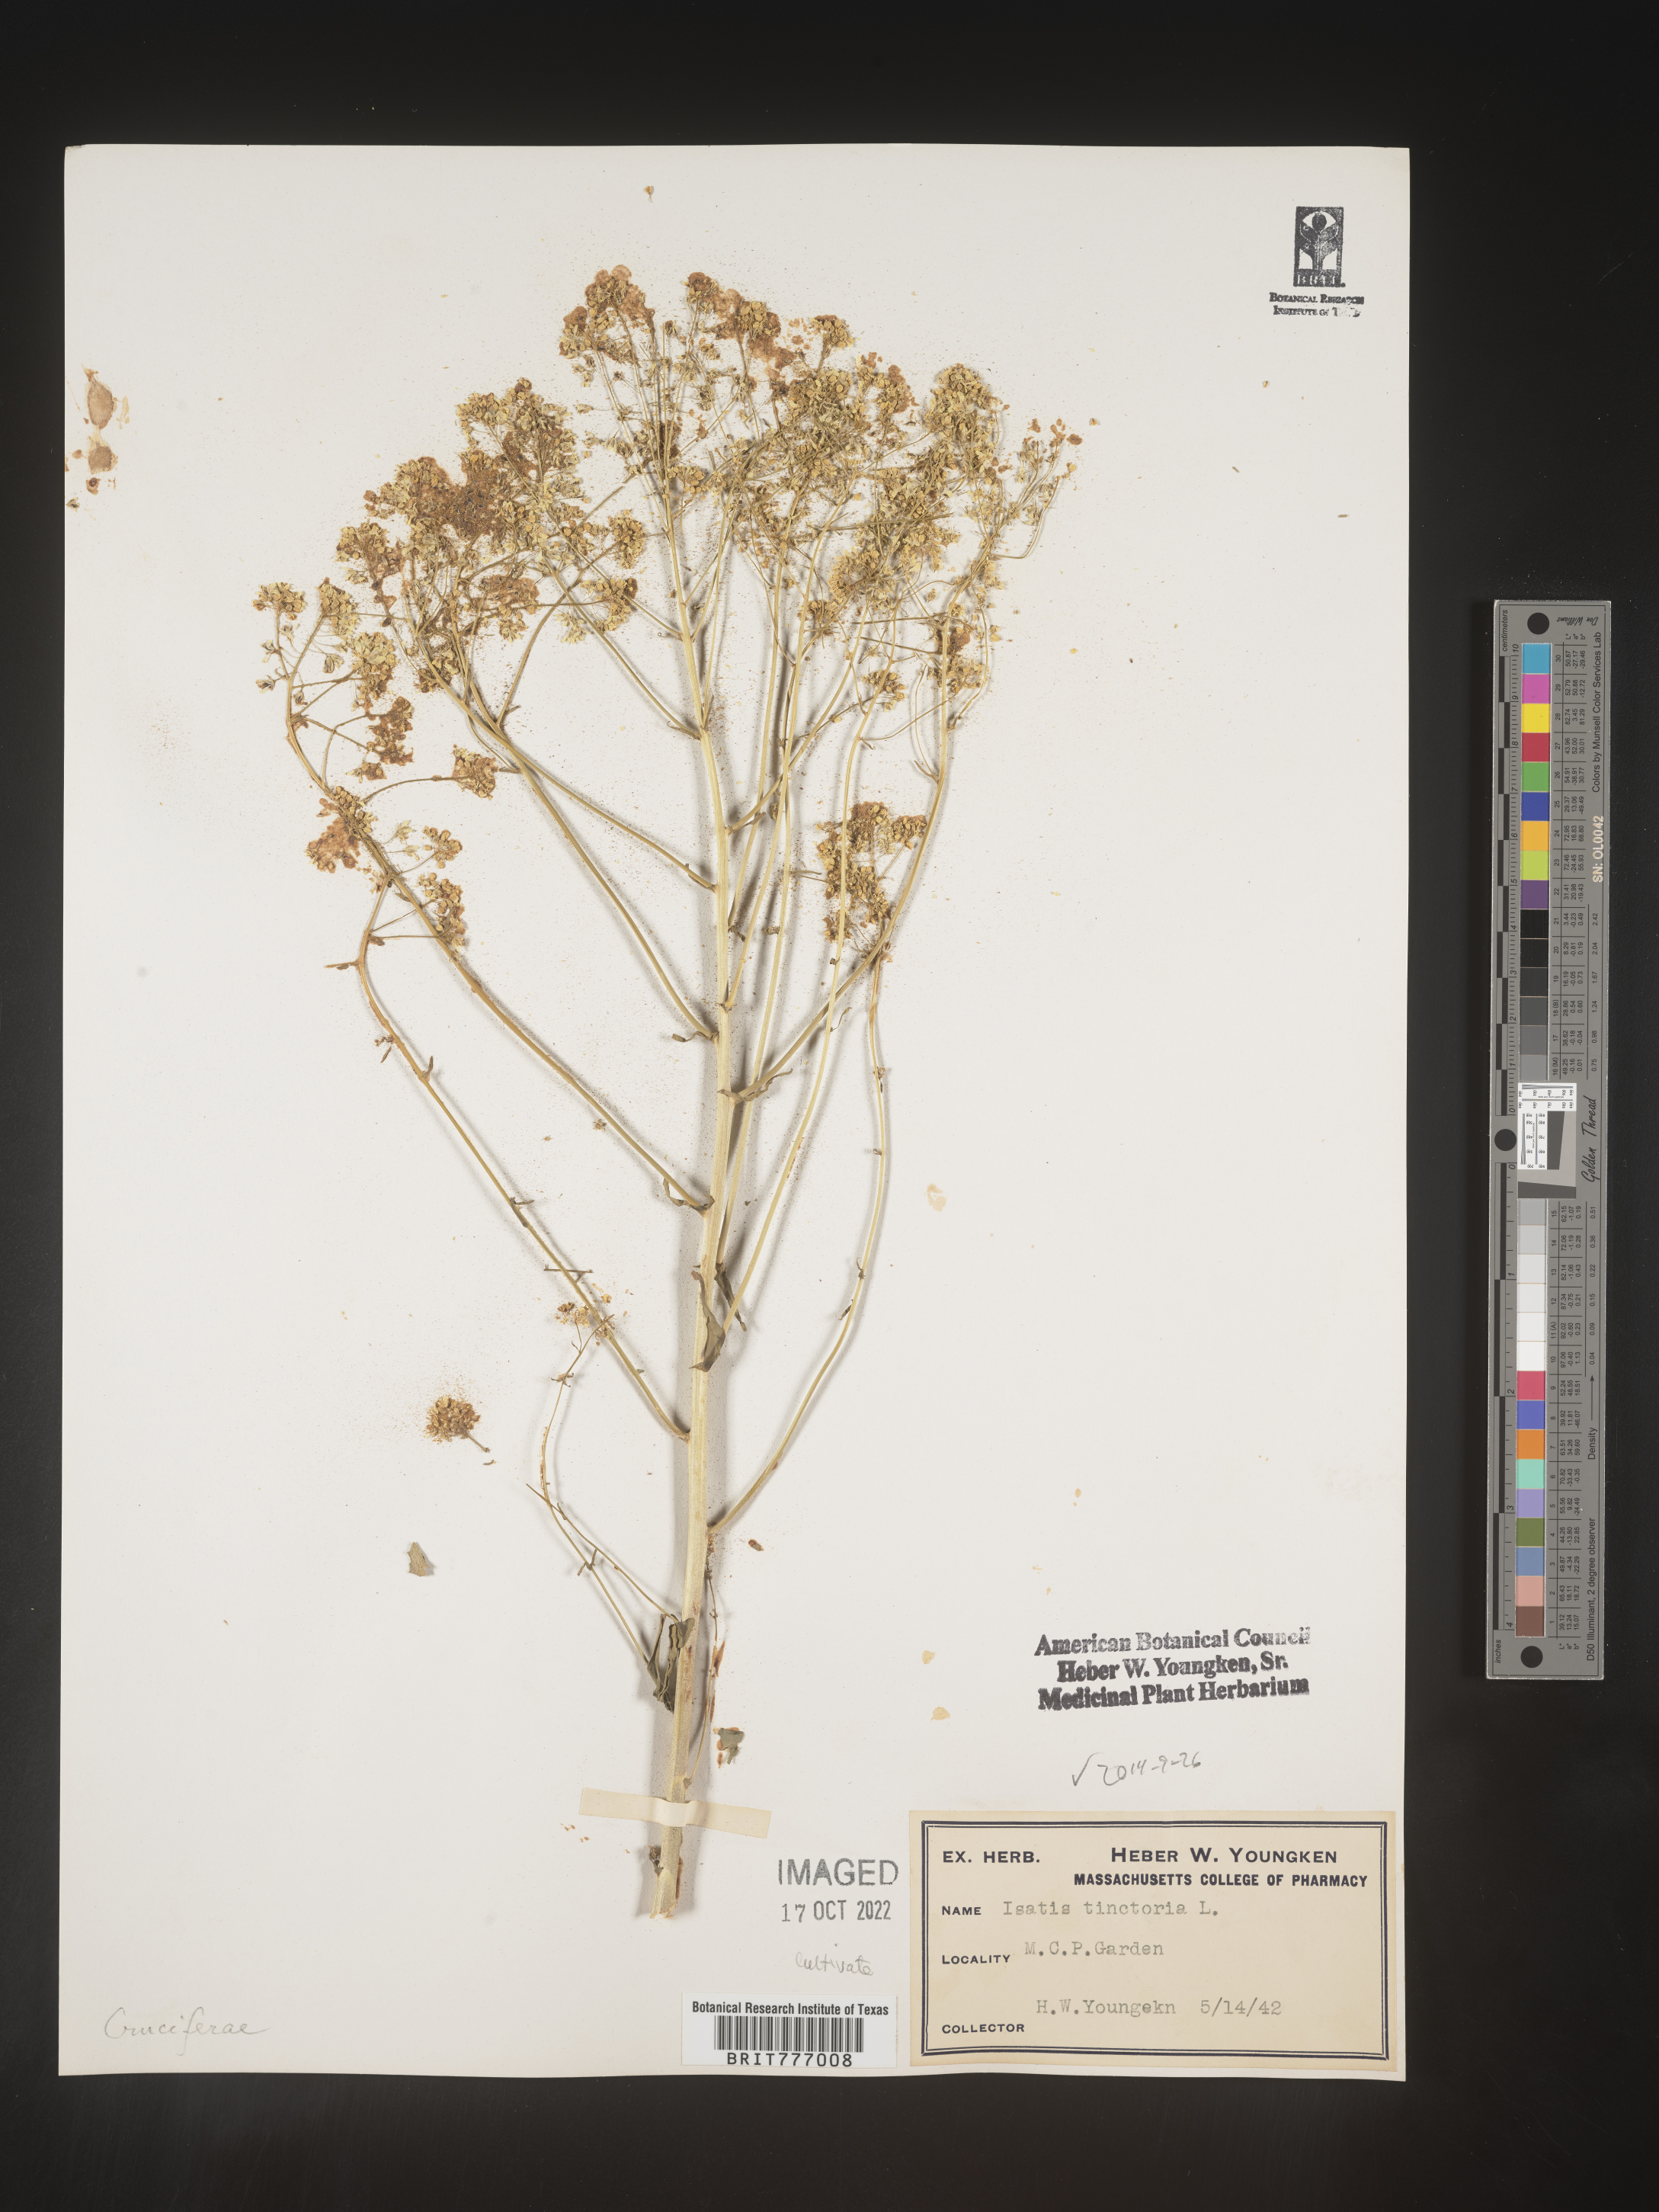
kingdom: Plantae
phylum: Tracheophyta
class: Magnoliopsida
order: Brassicales
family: Brassicaceae
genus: Isatis
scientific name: Isatis
